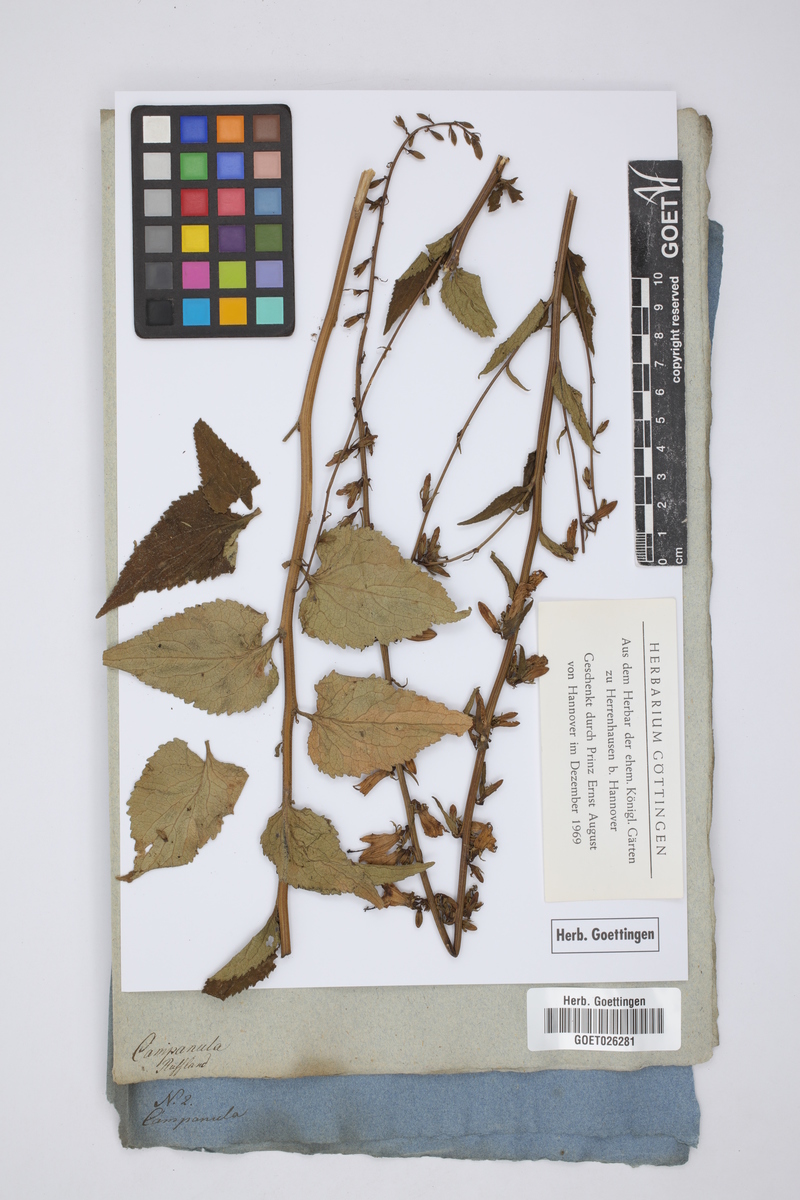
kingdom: Plantae
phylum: Tracheophyta
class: Magnoliopsida
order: Asterales
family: Campanulaceae
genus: Campanula
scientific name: Campanula
